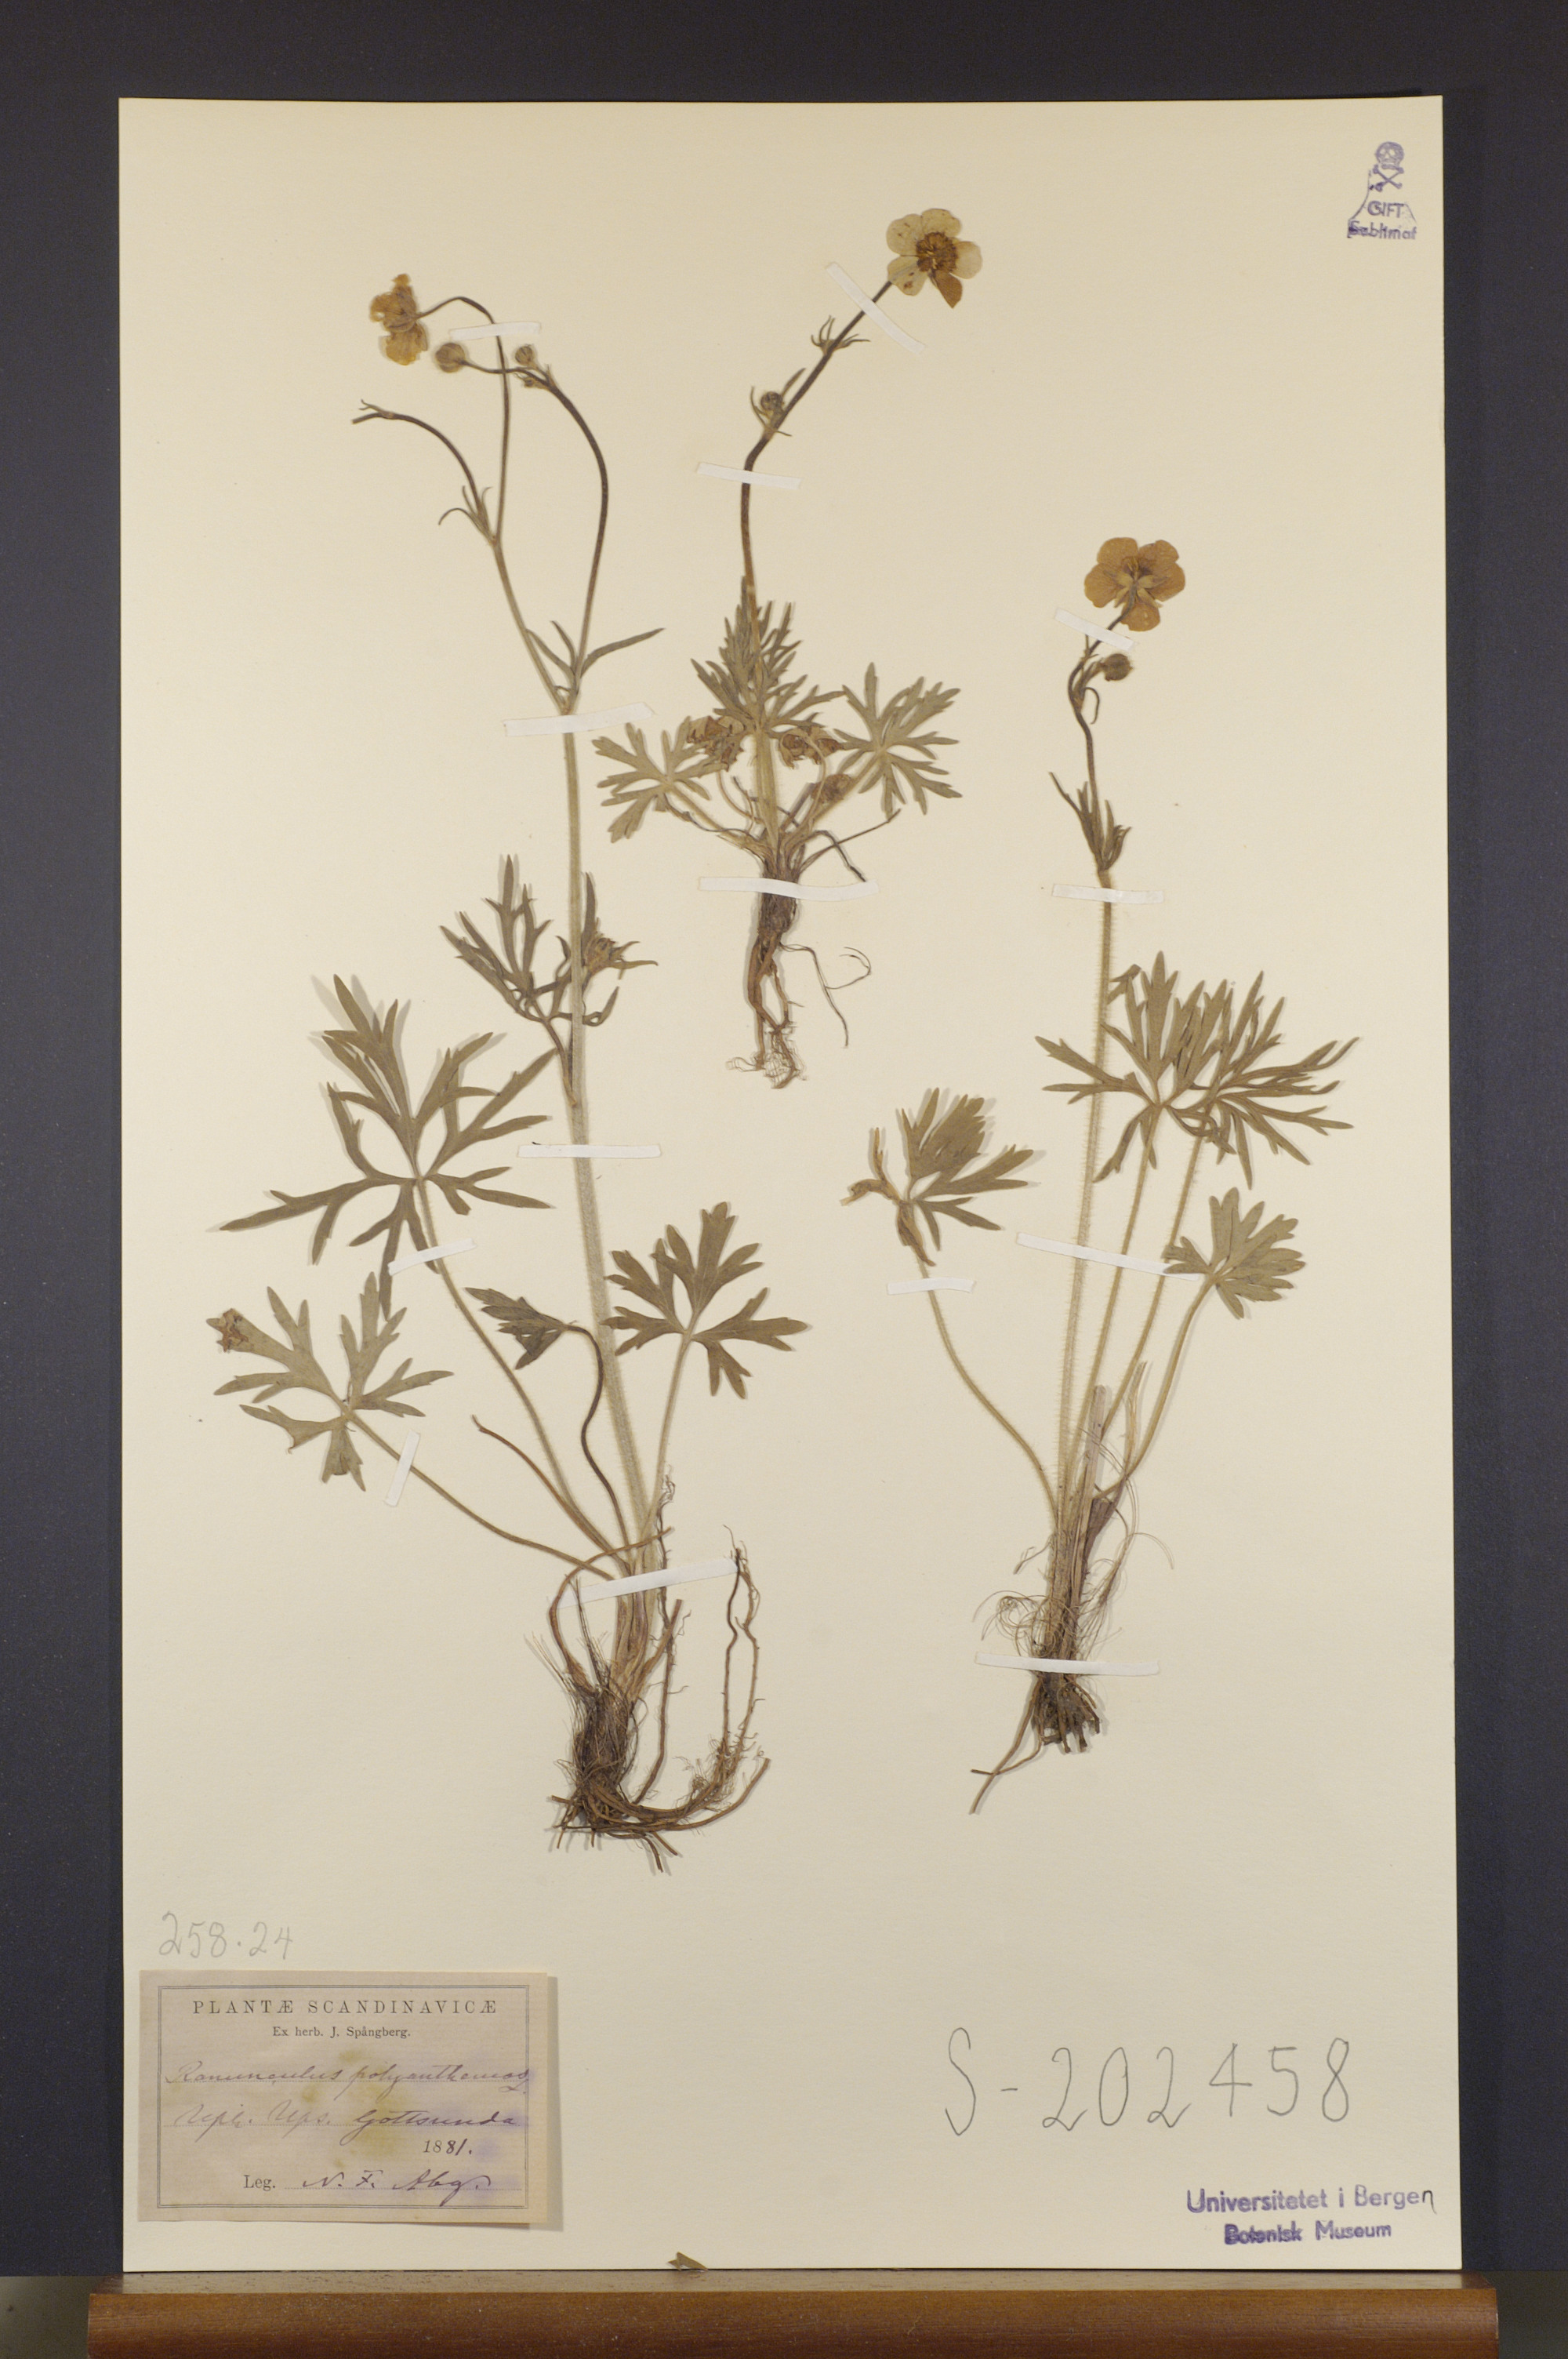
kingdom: Plantae
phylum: Tracheophyta
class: Magnoliopsida
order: Ranunculales
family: Ranunculaceae
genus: Ranunculus
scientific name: Ranunculus polyanthemos
